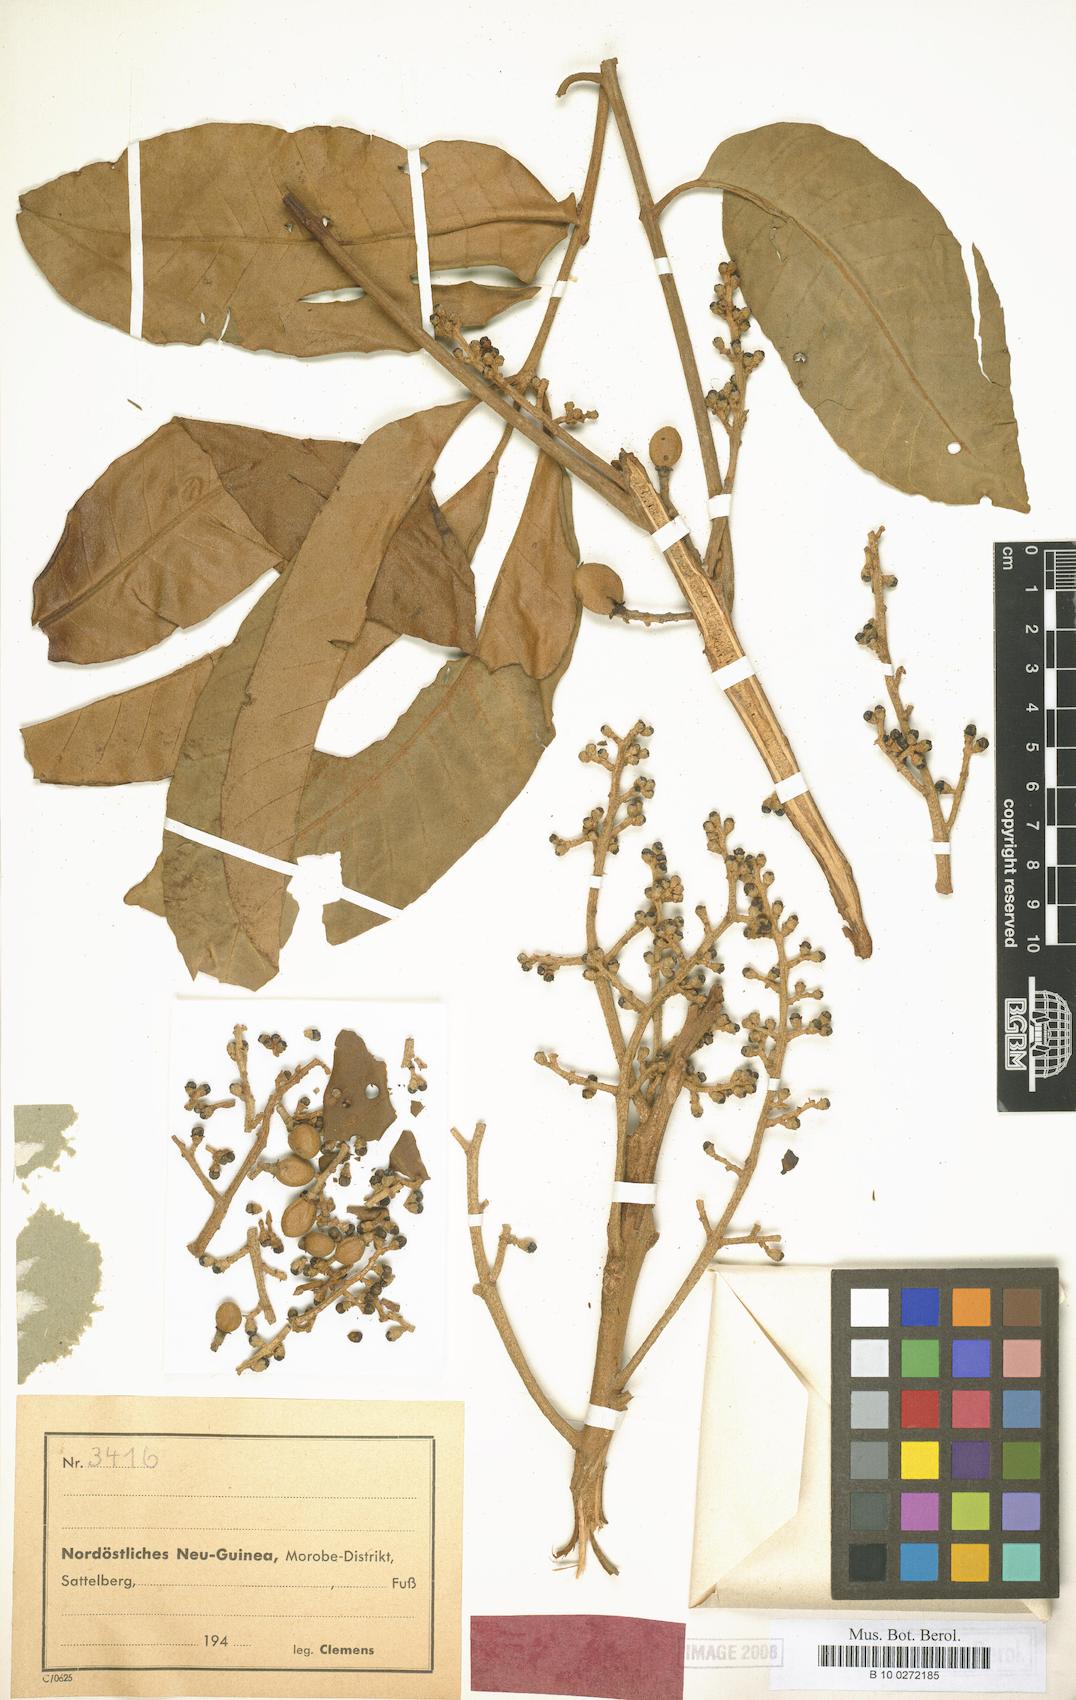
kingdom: Plantae
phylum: Tracheophyta
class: Magnoliopsida
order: Sapindales
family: Meliaceae
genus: Aglaia
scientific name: Aglaia subcuprea
